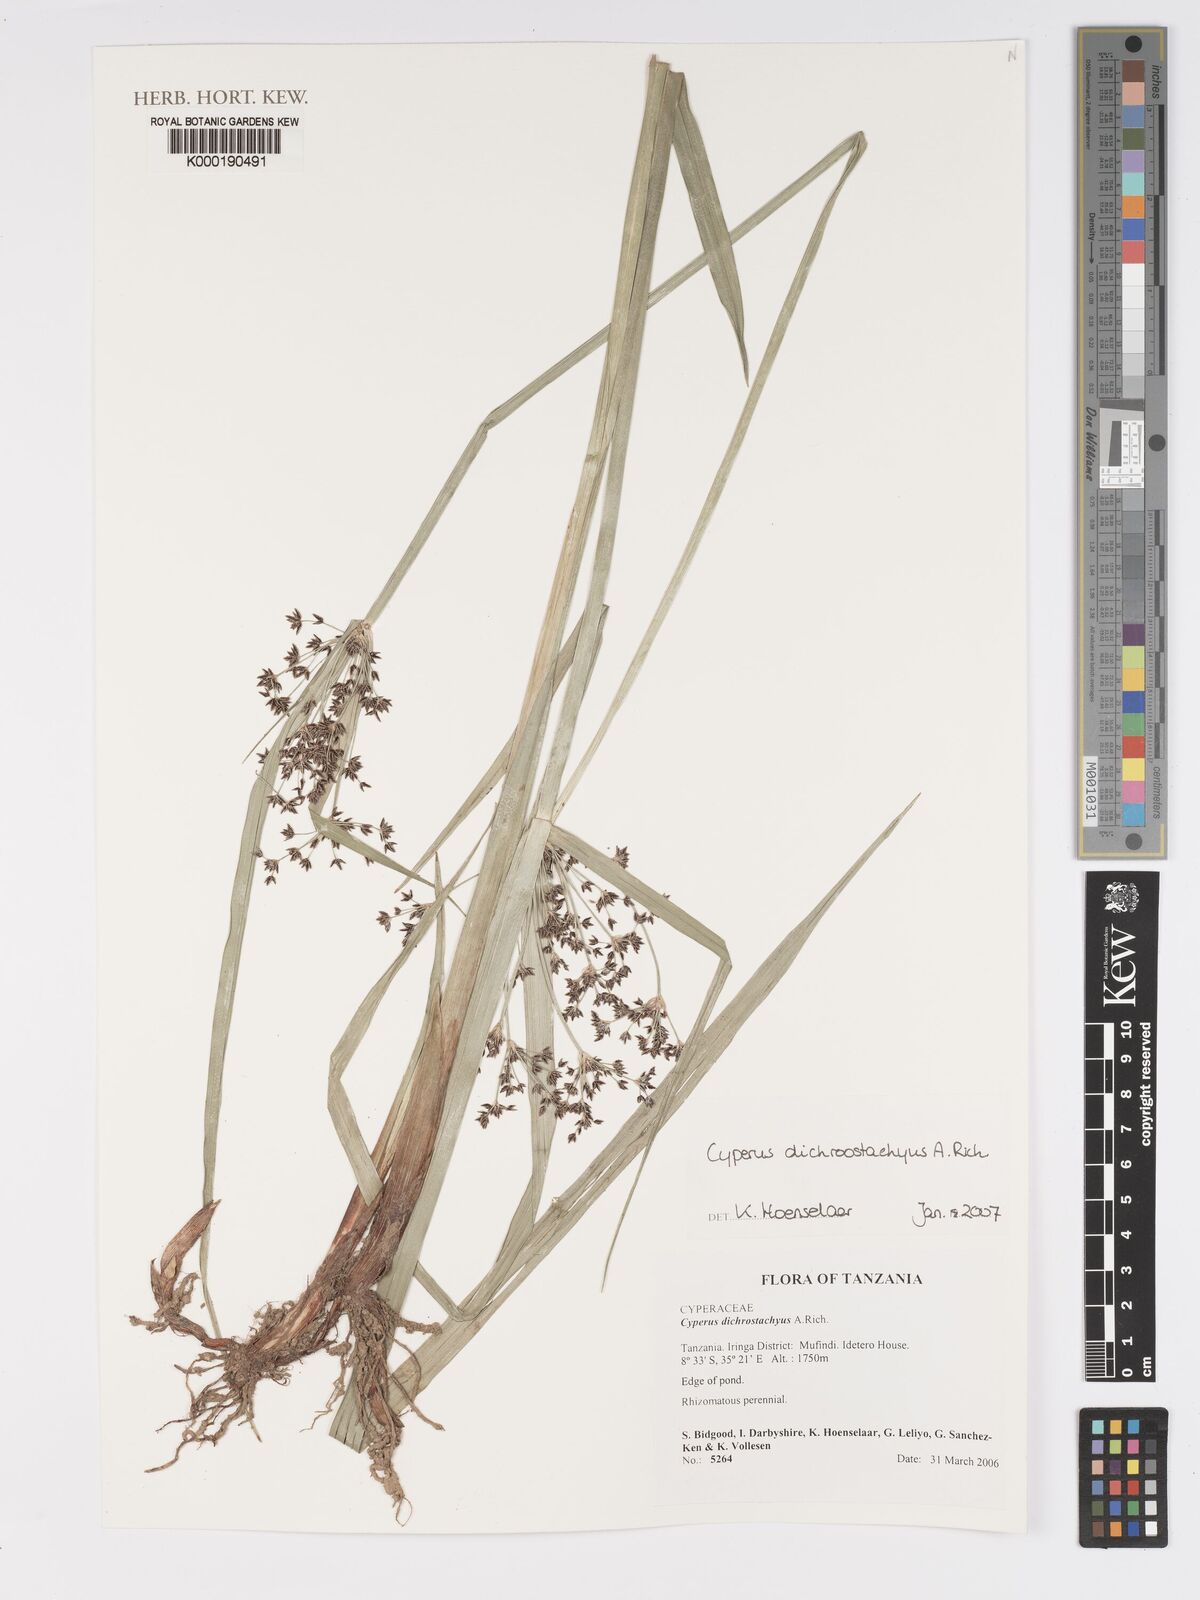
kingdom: Plantae
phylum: Tracheophyta
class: Liliopsida
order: Poales
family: Cyperaceae
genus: Cyperus
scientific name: Cyperus dichrostachyus
